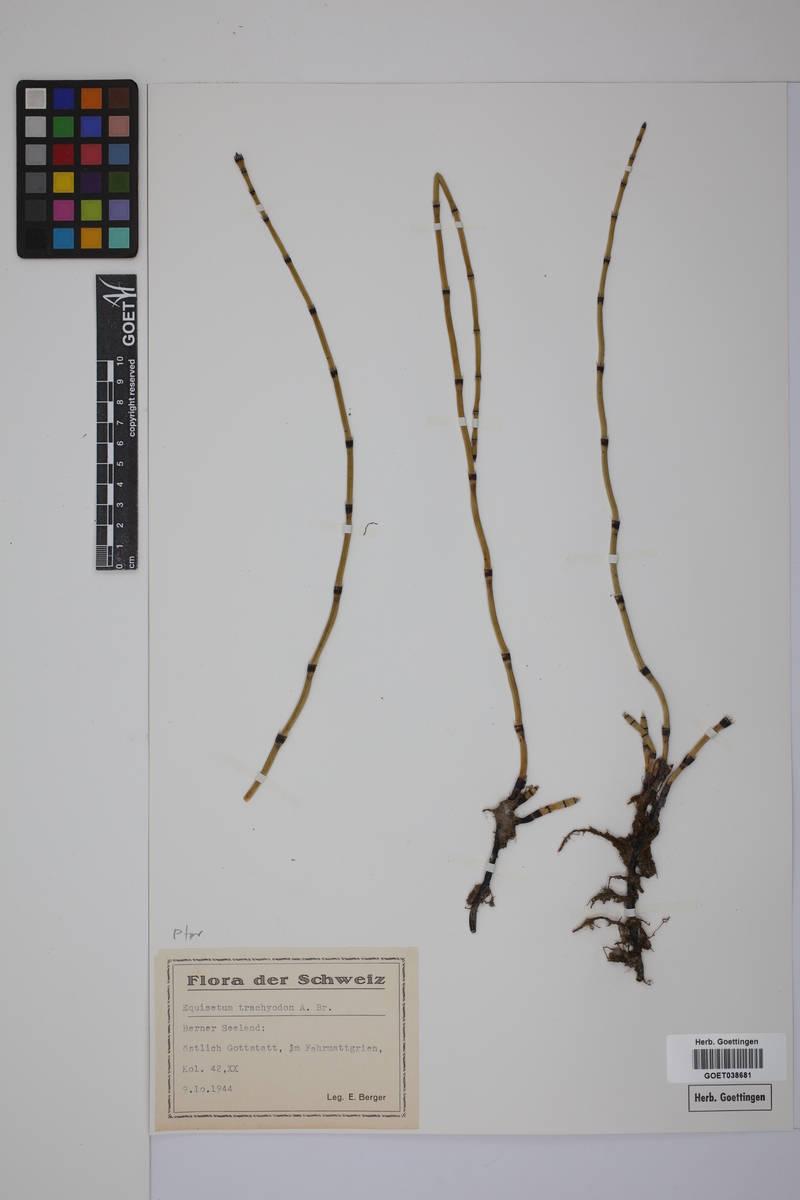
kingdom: Plantae
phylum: Tracheophyta
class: Polypodiopsida
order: Equisetales
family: Equisetaceae
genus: Equisetum
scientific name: Equisetum hyemale
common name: Rough horsetail
